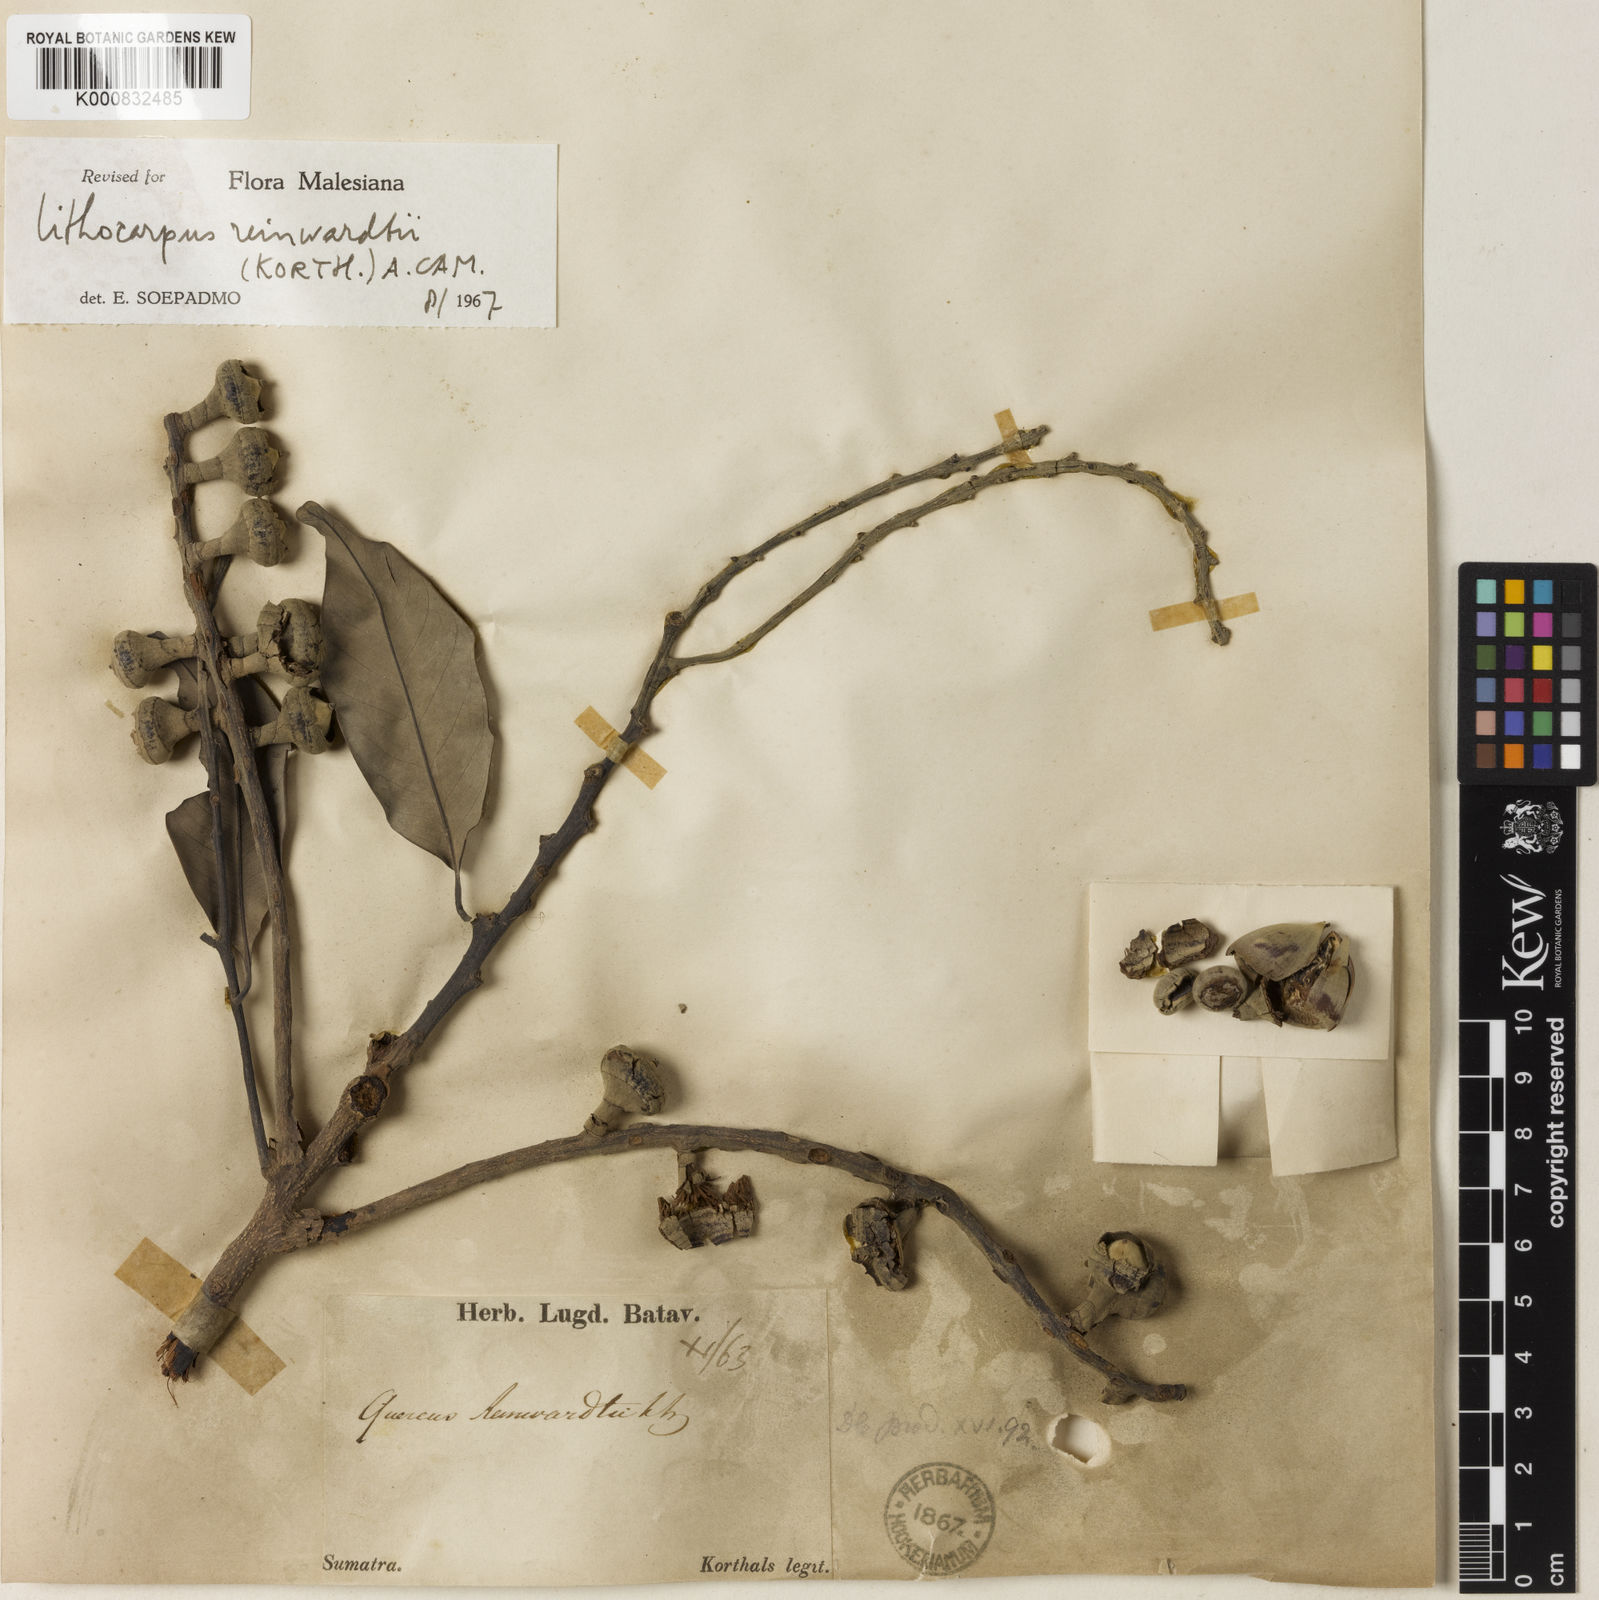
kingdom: Plantae
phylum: Tracheophyta
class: Magnoliopsida
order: Fagales
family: Fagaceae
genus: Lithocarpus
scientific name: Lithocarpus reinwardtii
